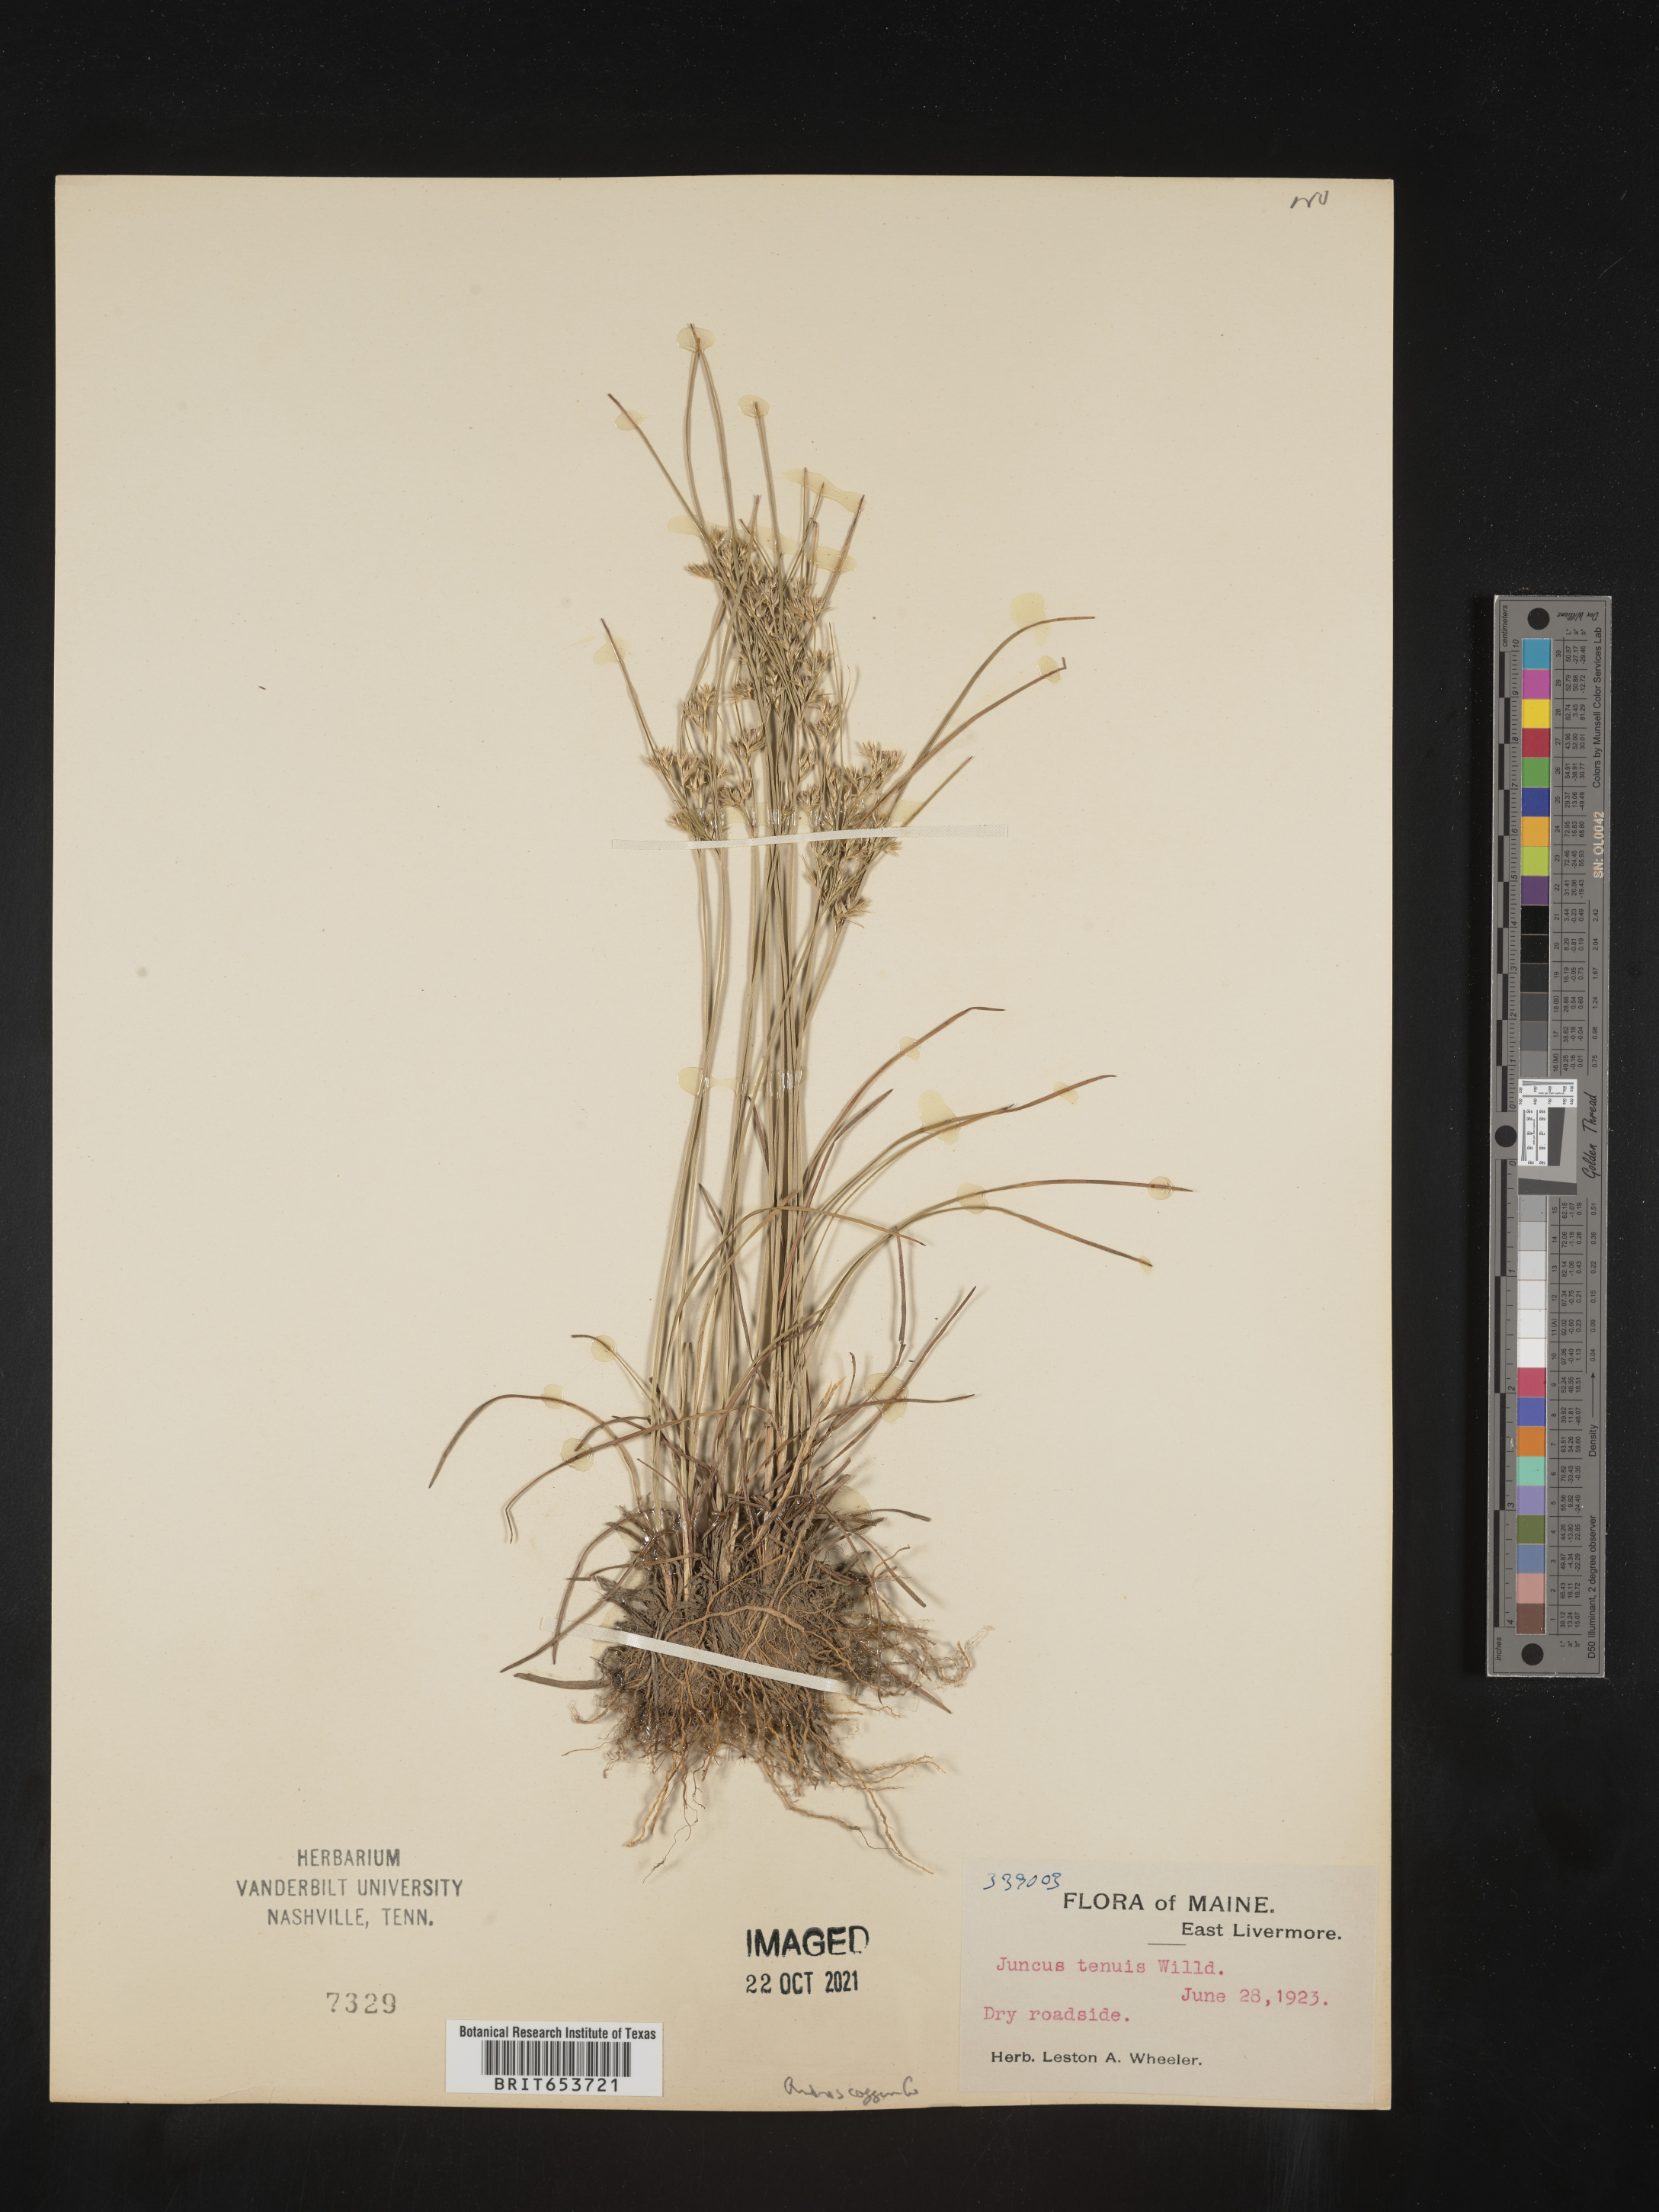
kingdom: Plantae
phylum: Tracheophyta
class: Liliopsida
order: Poales
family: Juncaceae
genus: Juncus
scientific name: Juncus tenuis
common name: Slender rush
